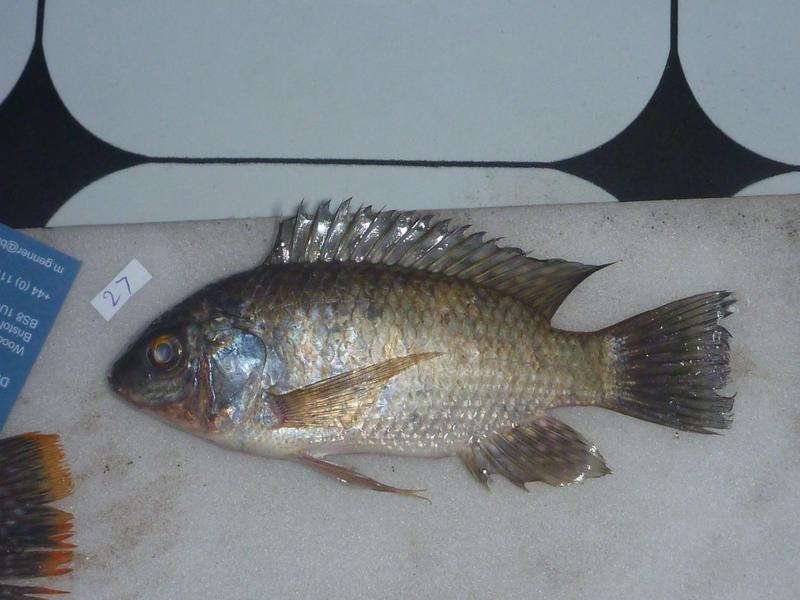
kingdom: Animalia
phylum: Chordata
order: Perciformes
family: Cichlidae
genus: Oreochromis
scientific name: Oreochromis leucostictus
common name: Blue spotted tilapia
